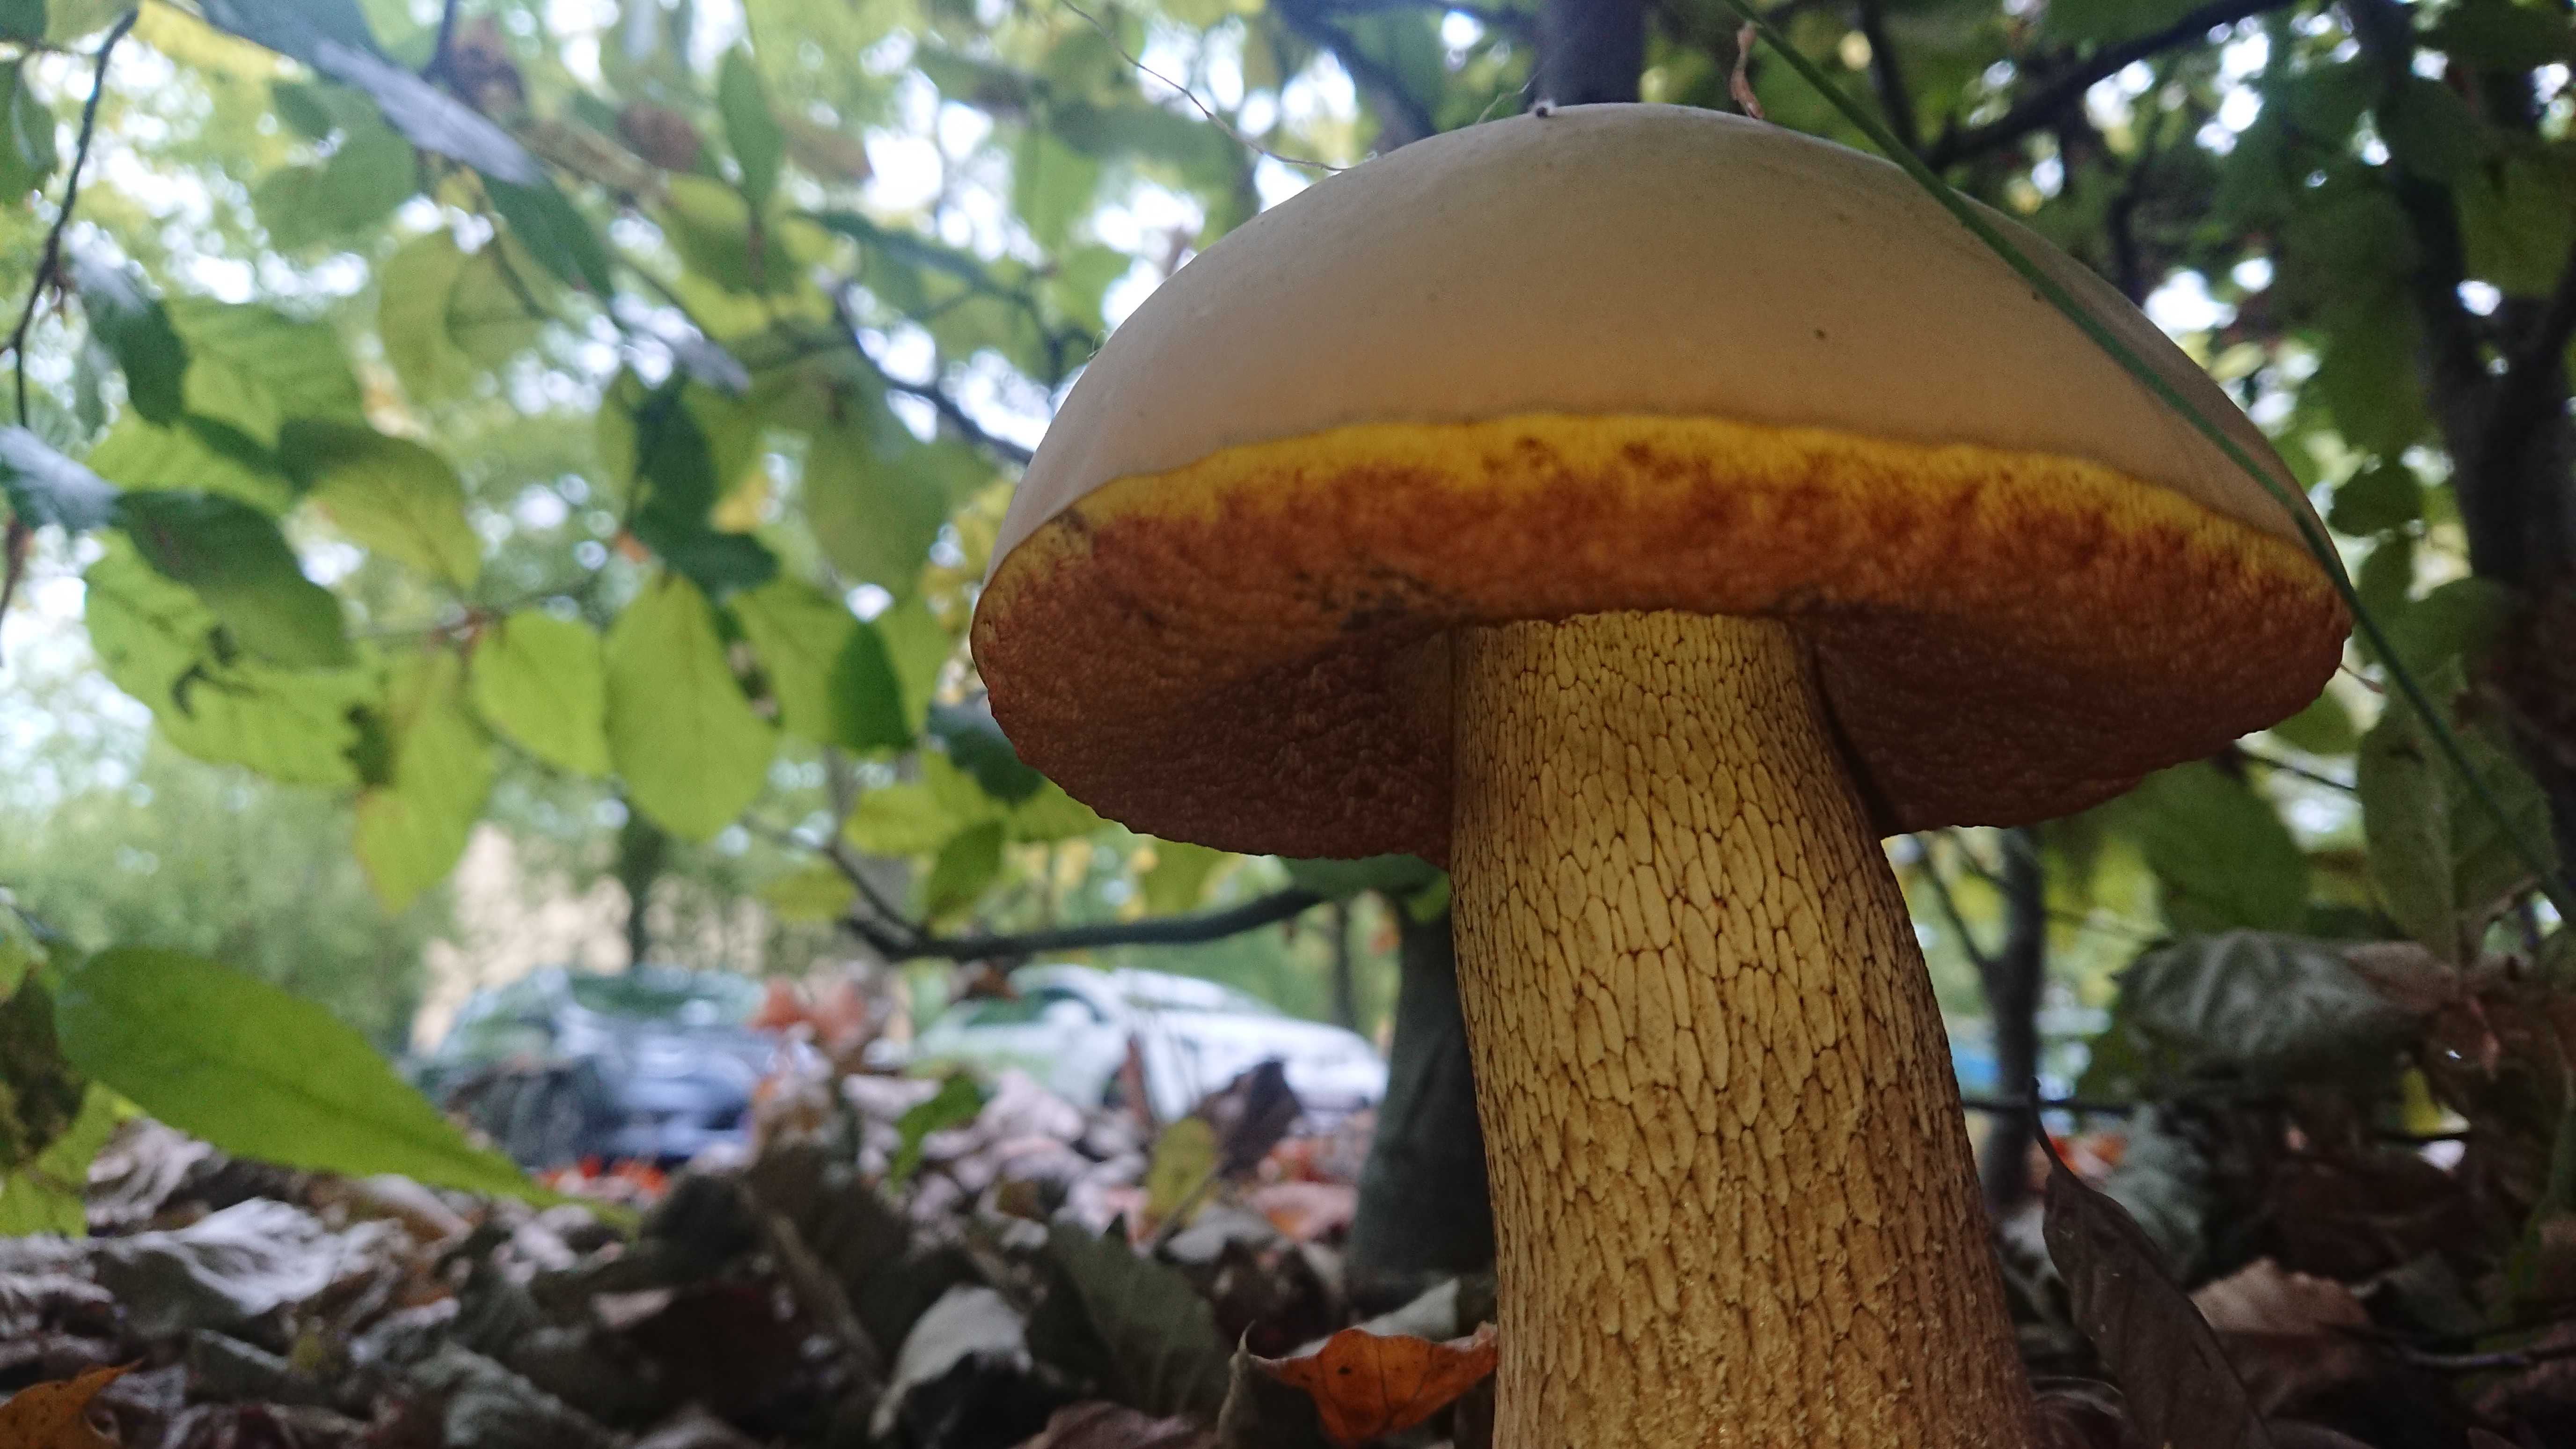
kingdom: Fungi
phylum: Basidiomycota
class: Agaricomycetes
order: Boletales
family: Boletaceae
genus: Suillellus
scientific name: Suillellus luridus
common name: netstokket indigorørhat
